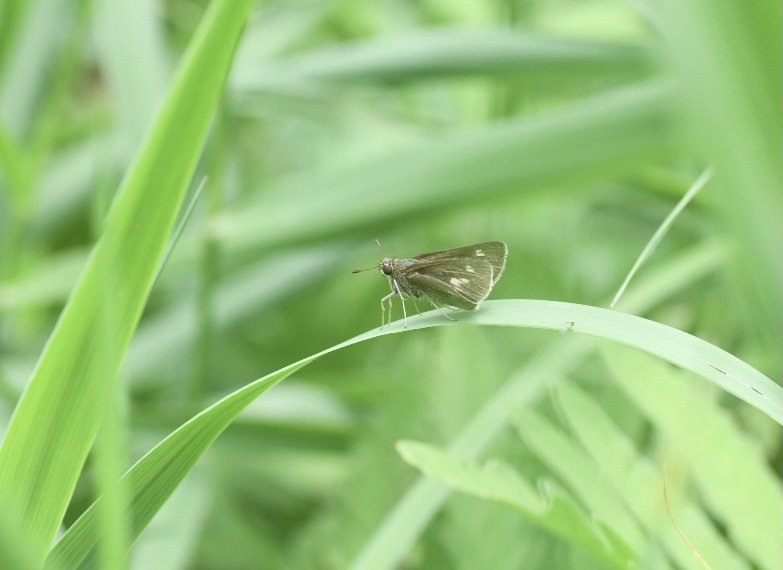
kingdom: Animalia
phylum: Arthropoda
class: Insecta
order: Lepidoptera
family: Hesperiidae
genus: Euphyes
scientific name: Euphyes vestris
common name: Dun Skipper
